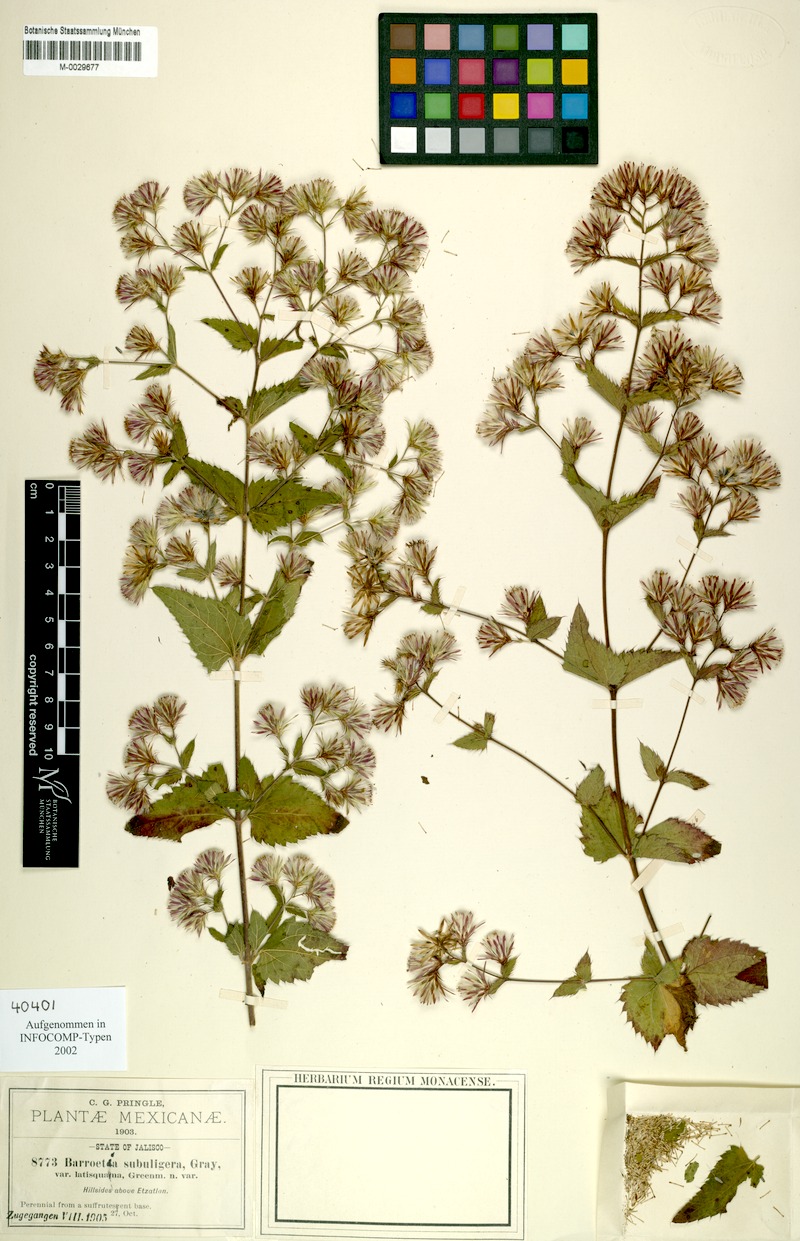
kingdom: Plantae
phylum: Tracheophyta
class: Magnoliopsida
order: Asterales
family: Asteraceae
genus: Brickellia
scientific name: Brickellia subuligera
